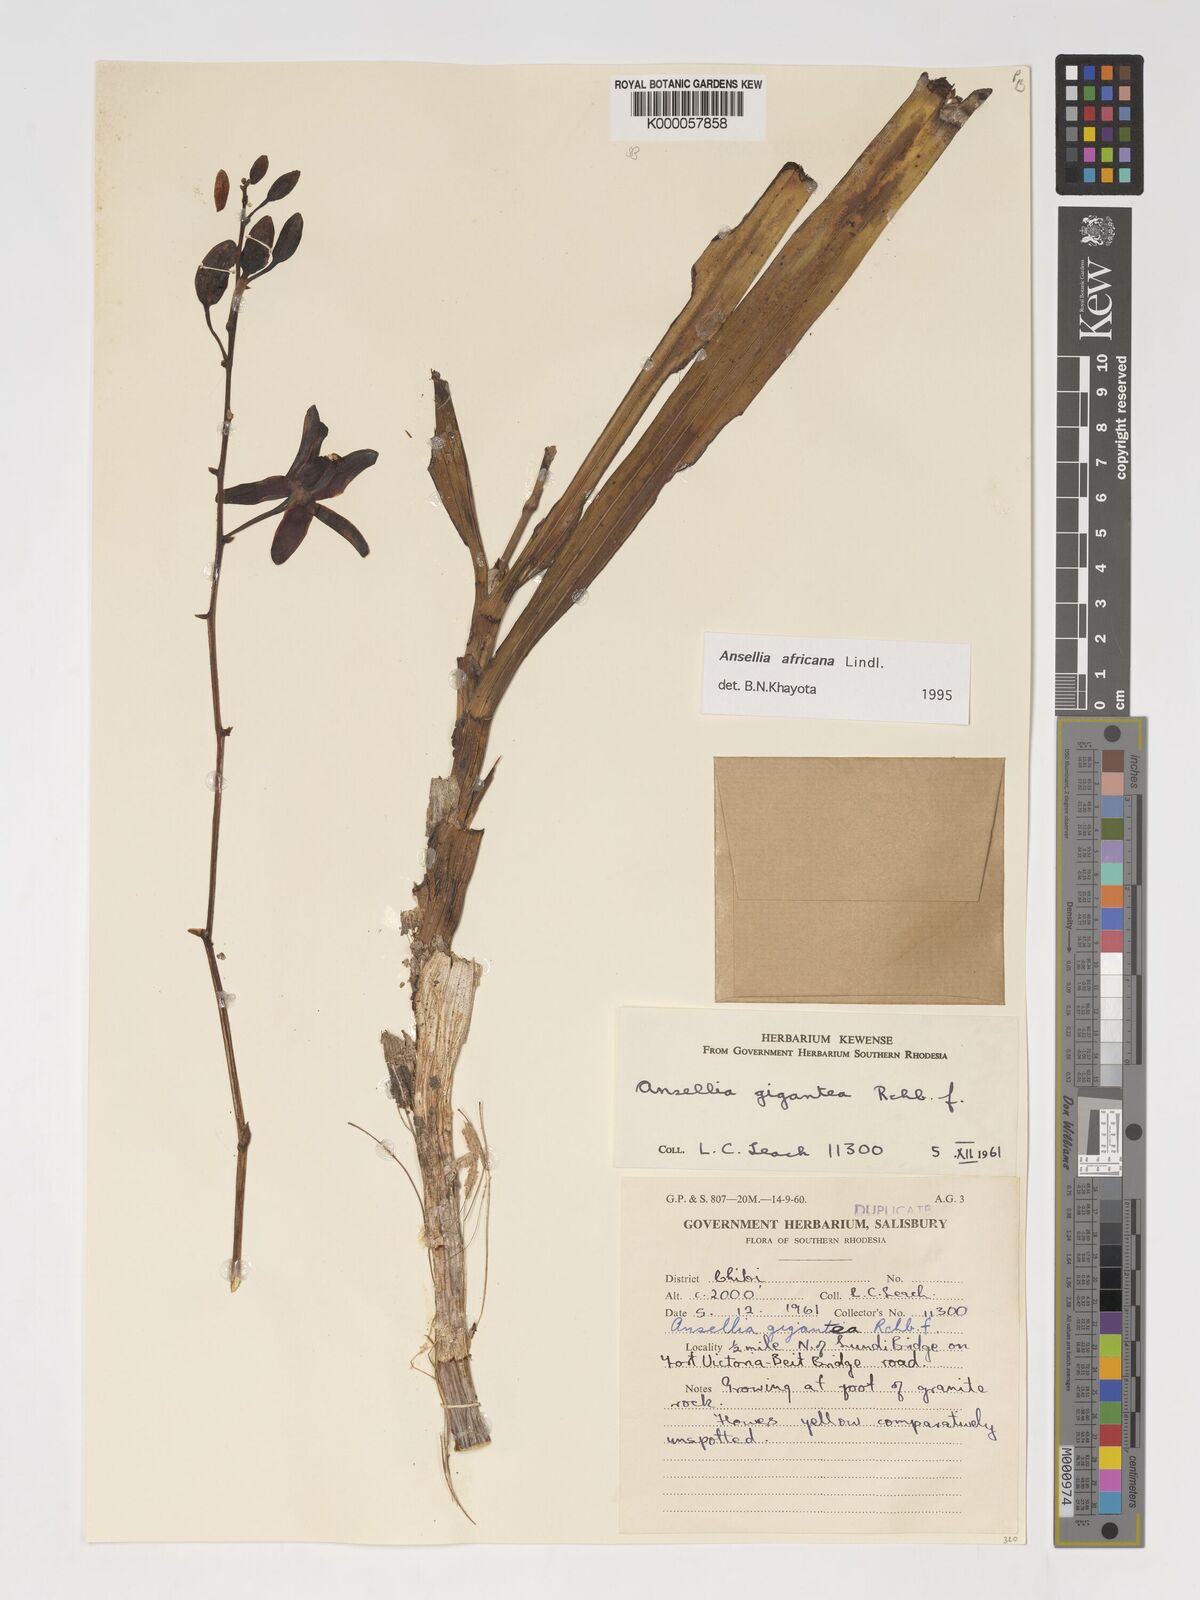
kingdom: Plantae
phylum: Tracheophyta
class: Liliopsida
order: Asparagales
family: Orchidaceae
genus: Ansellia
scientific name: Ansellia africana
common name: African ansellia
